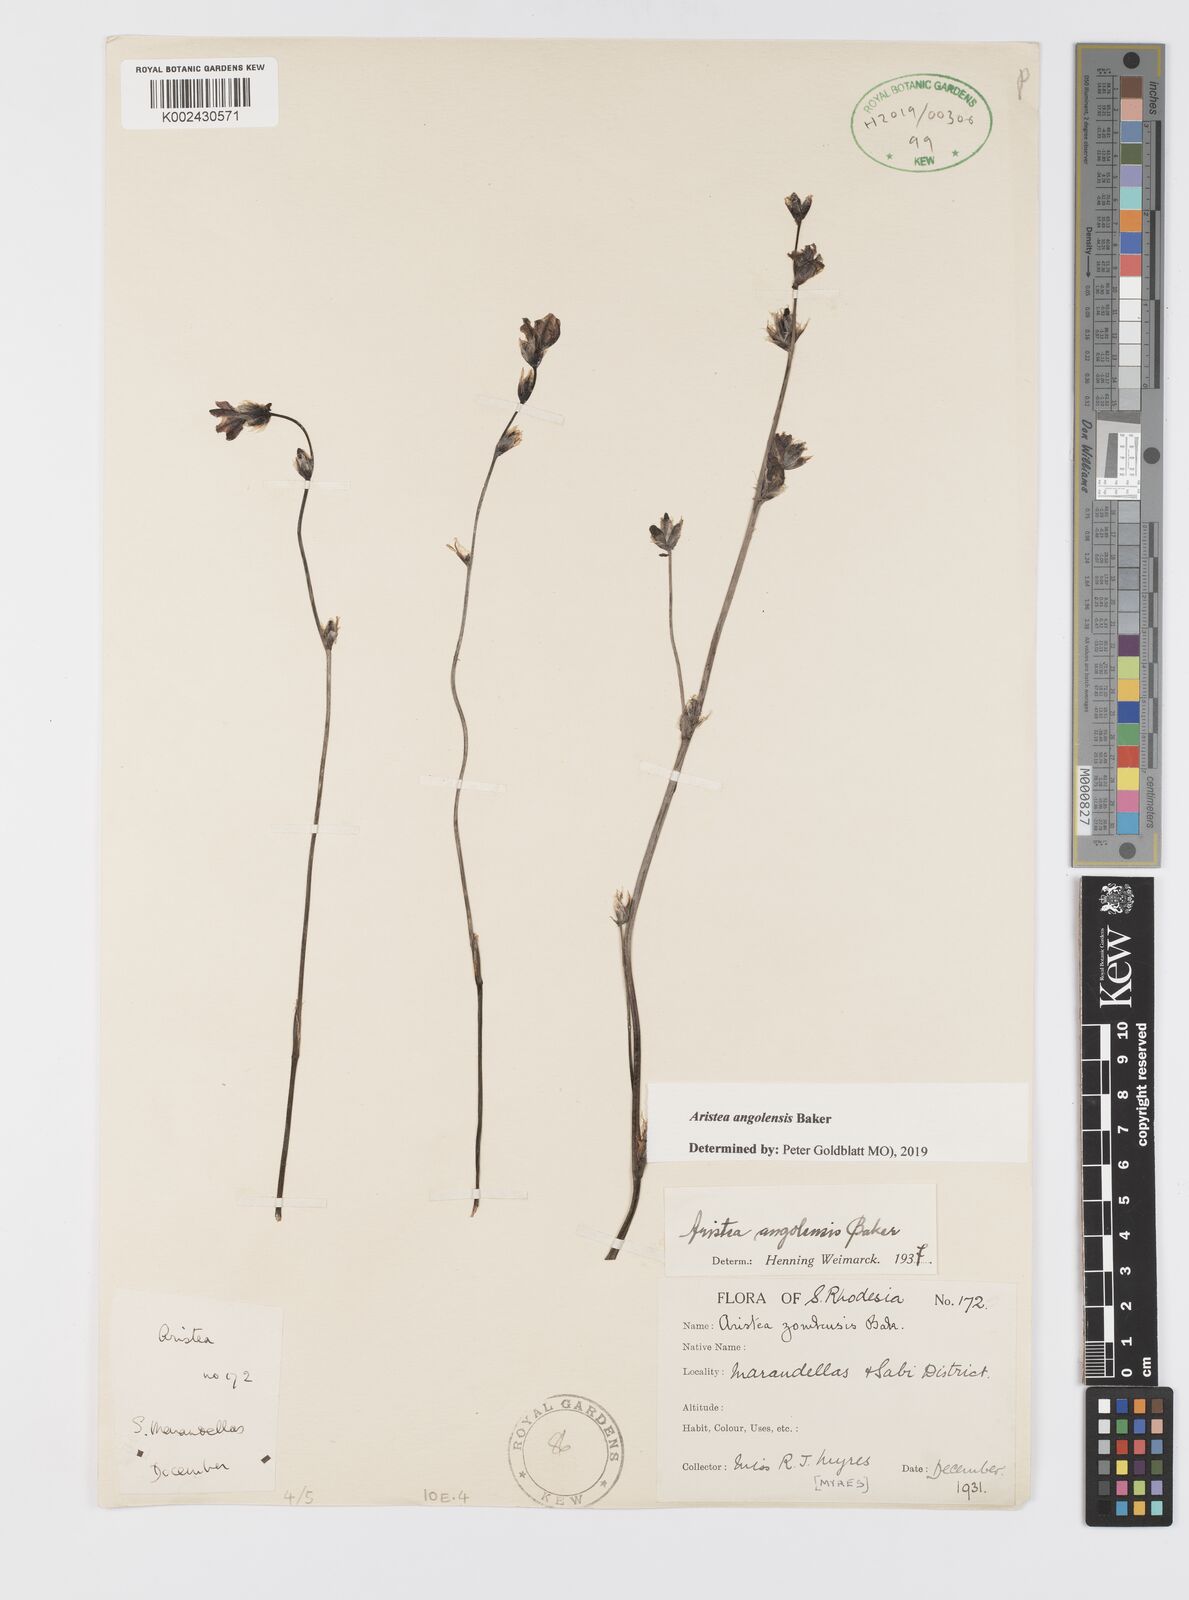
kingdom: Plantae
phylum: Tracheophyta
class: Liliopsida
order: Asparagales
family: Iridaceae
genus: Aristea
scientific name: Aristea angolensis
